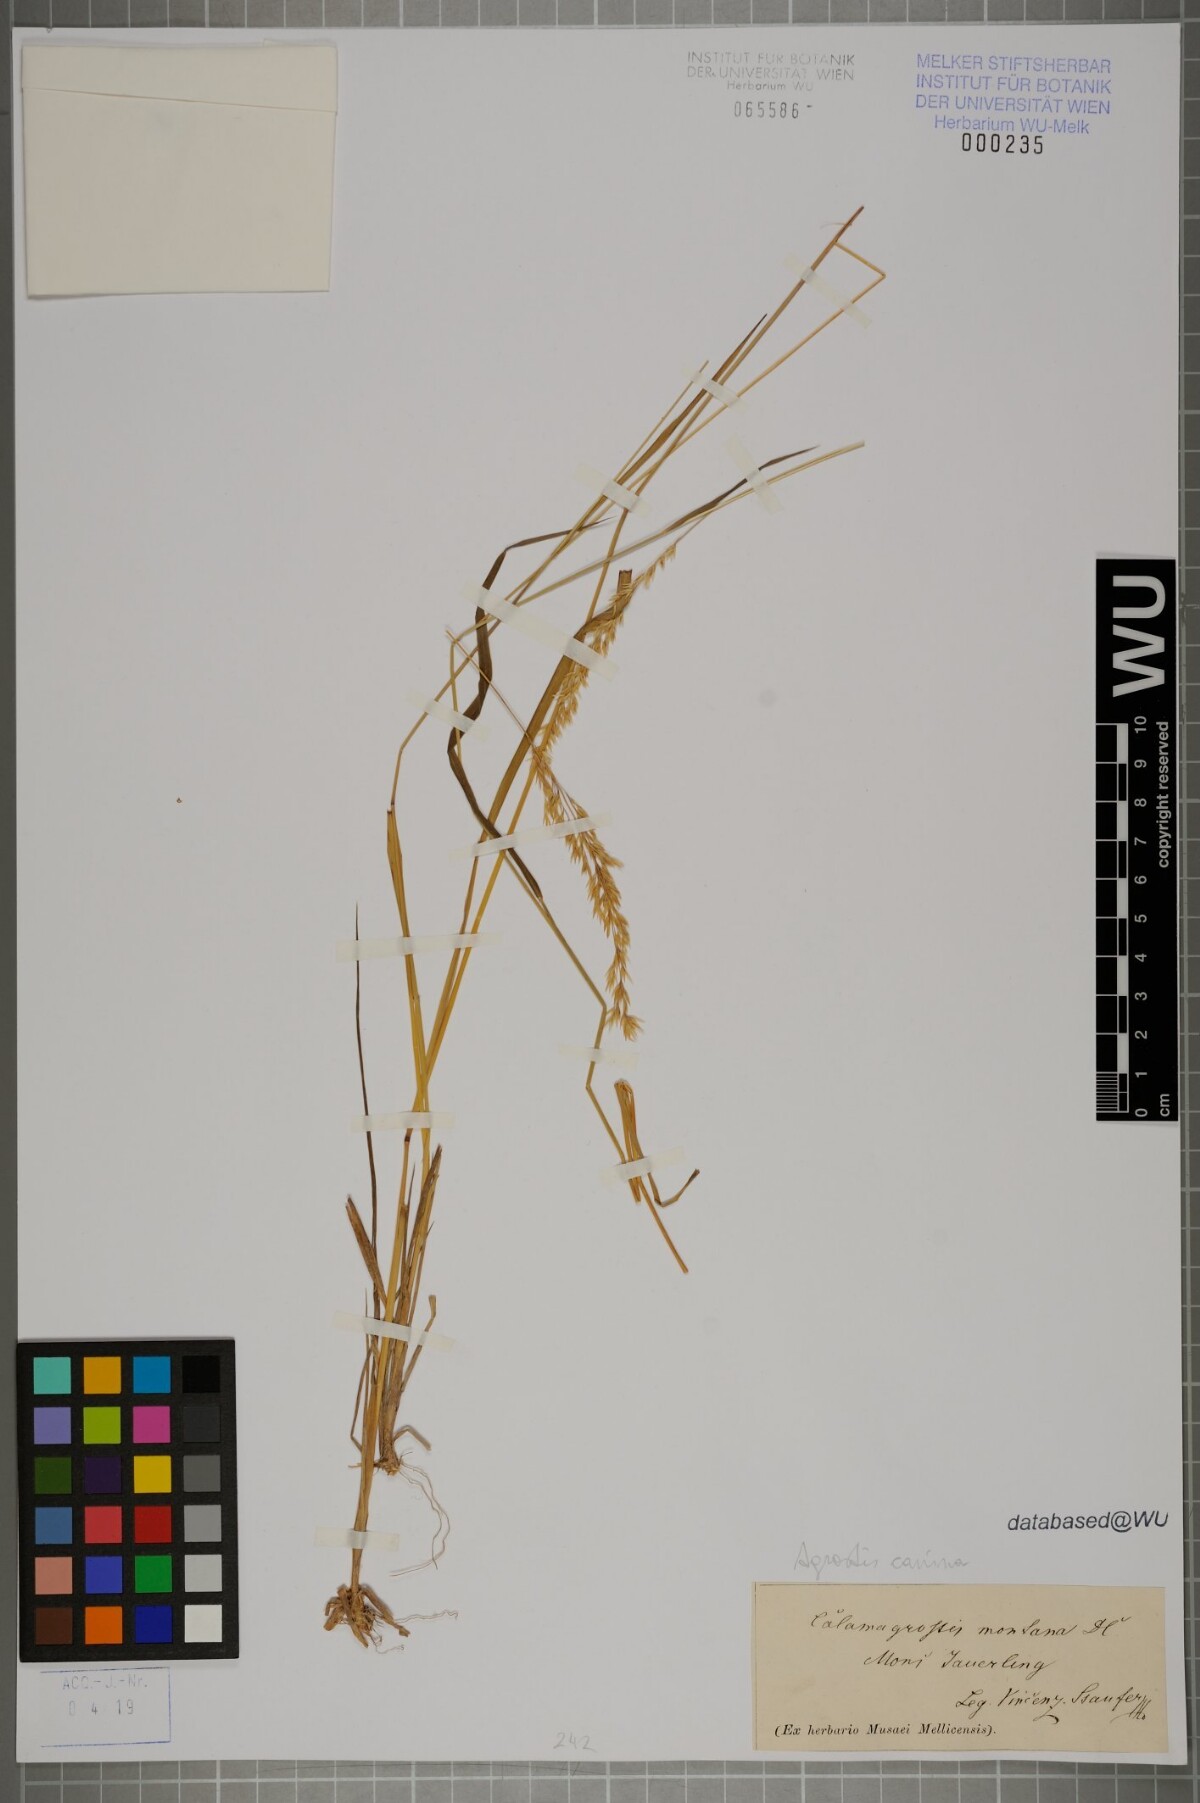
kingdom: Plantae
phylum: Tracheophyta
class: Liliopsida
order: Poales
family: Poaceae
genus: Agrostis
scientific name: Agrostis canina
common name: Velvet bent
